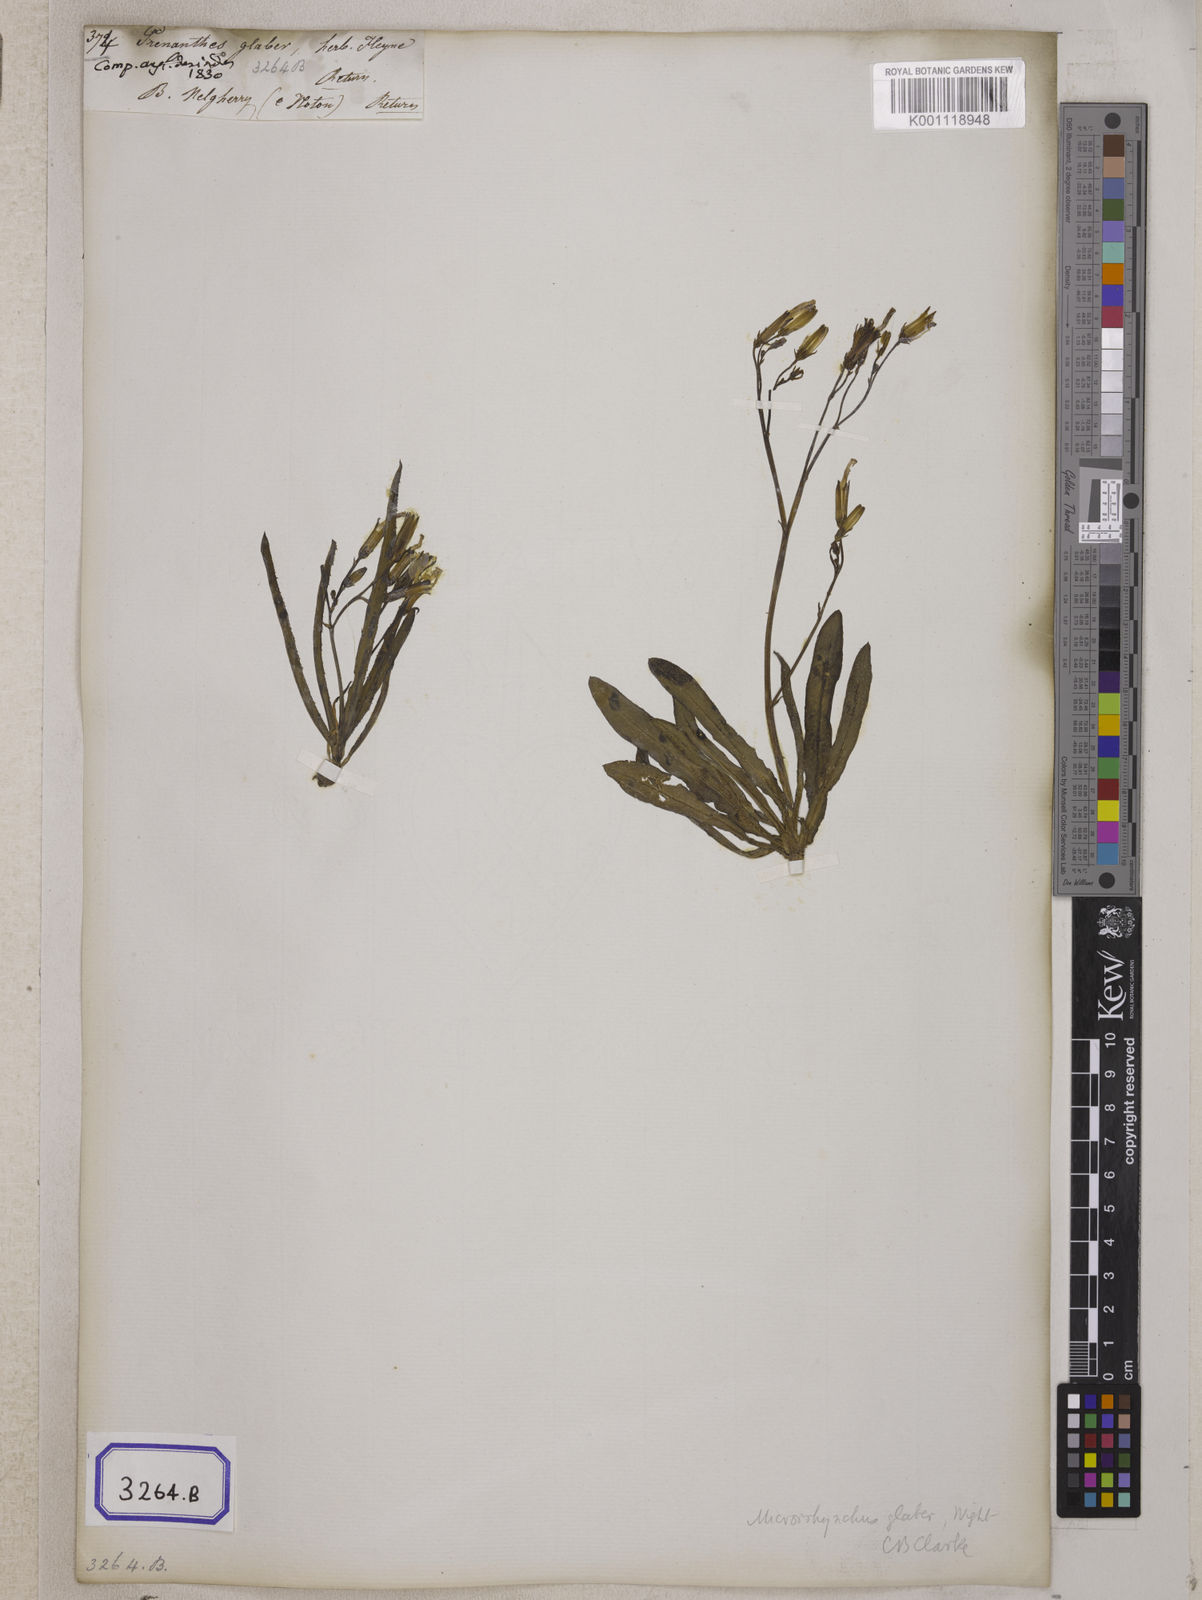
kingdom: Plantae
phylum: Tracheophyta
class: Magnoliopsida
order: Asterales
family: Asteraceae
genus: Launaea
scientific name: Launaea acaulis
